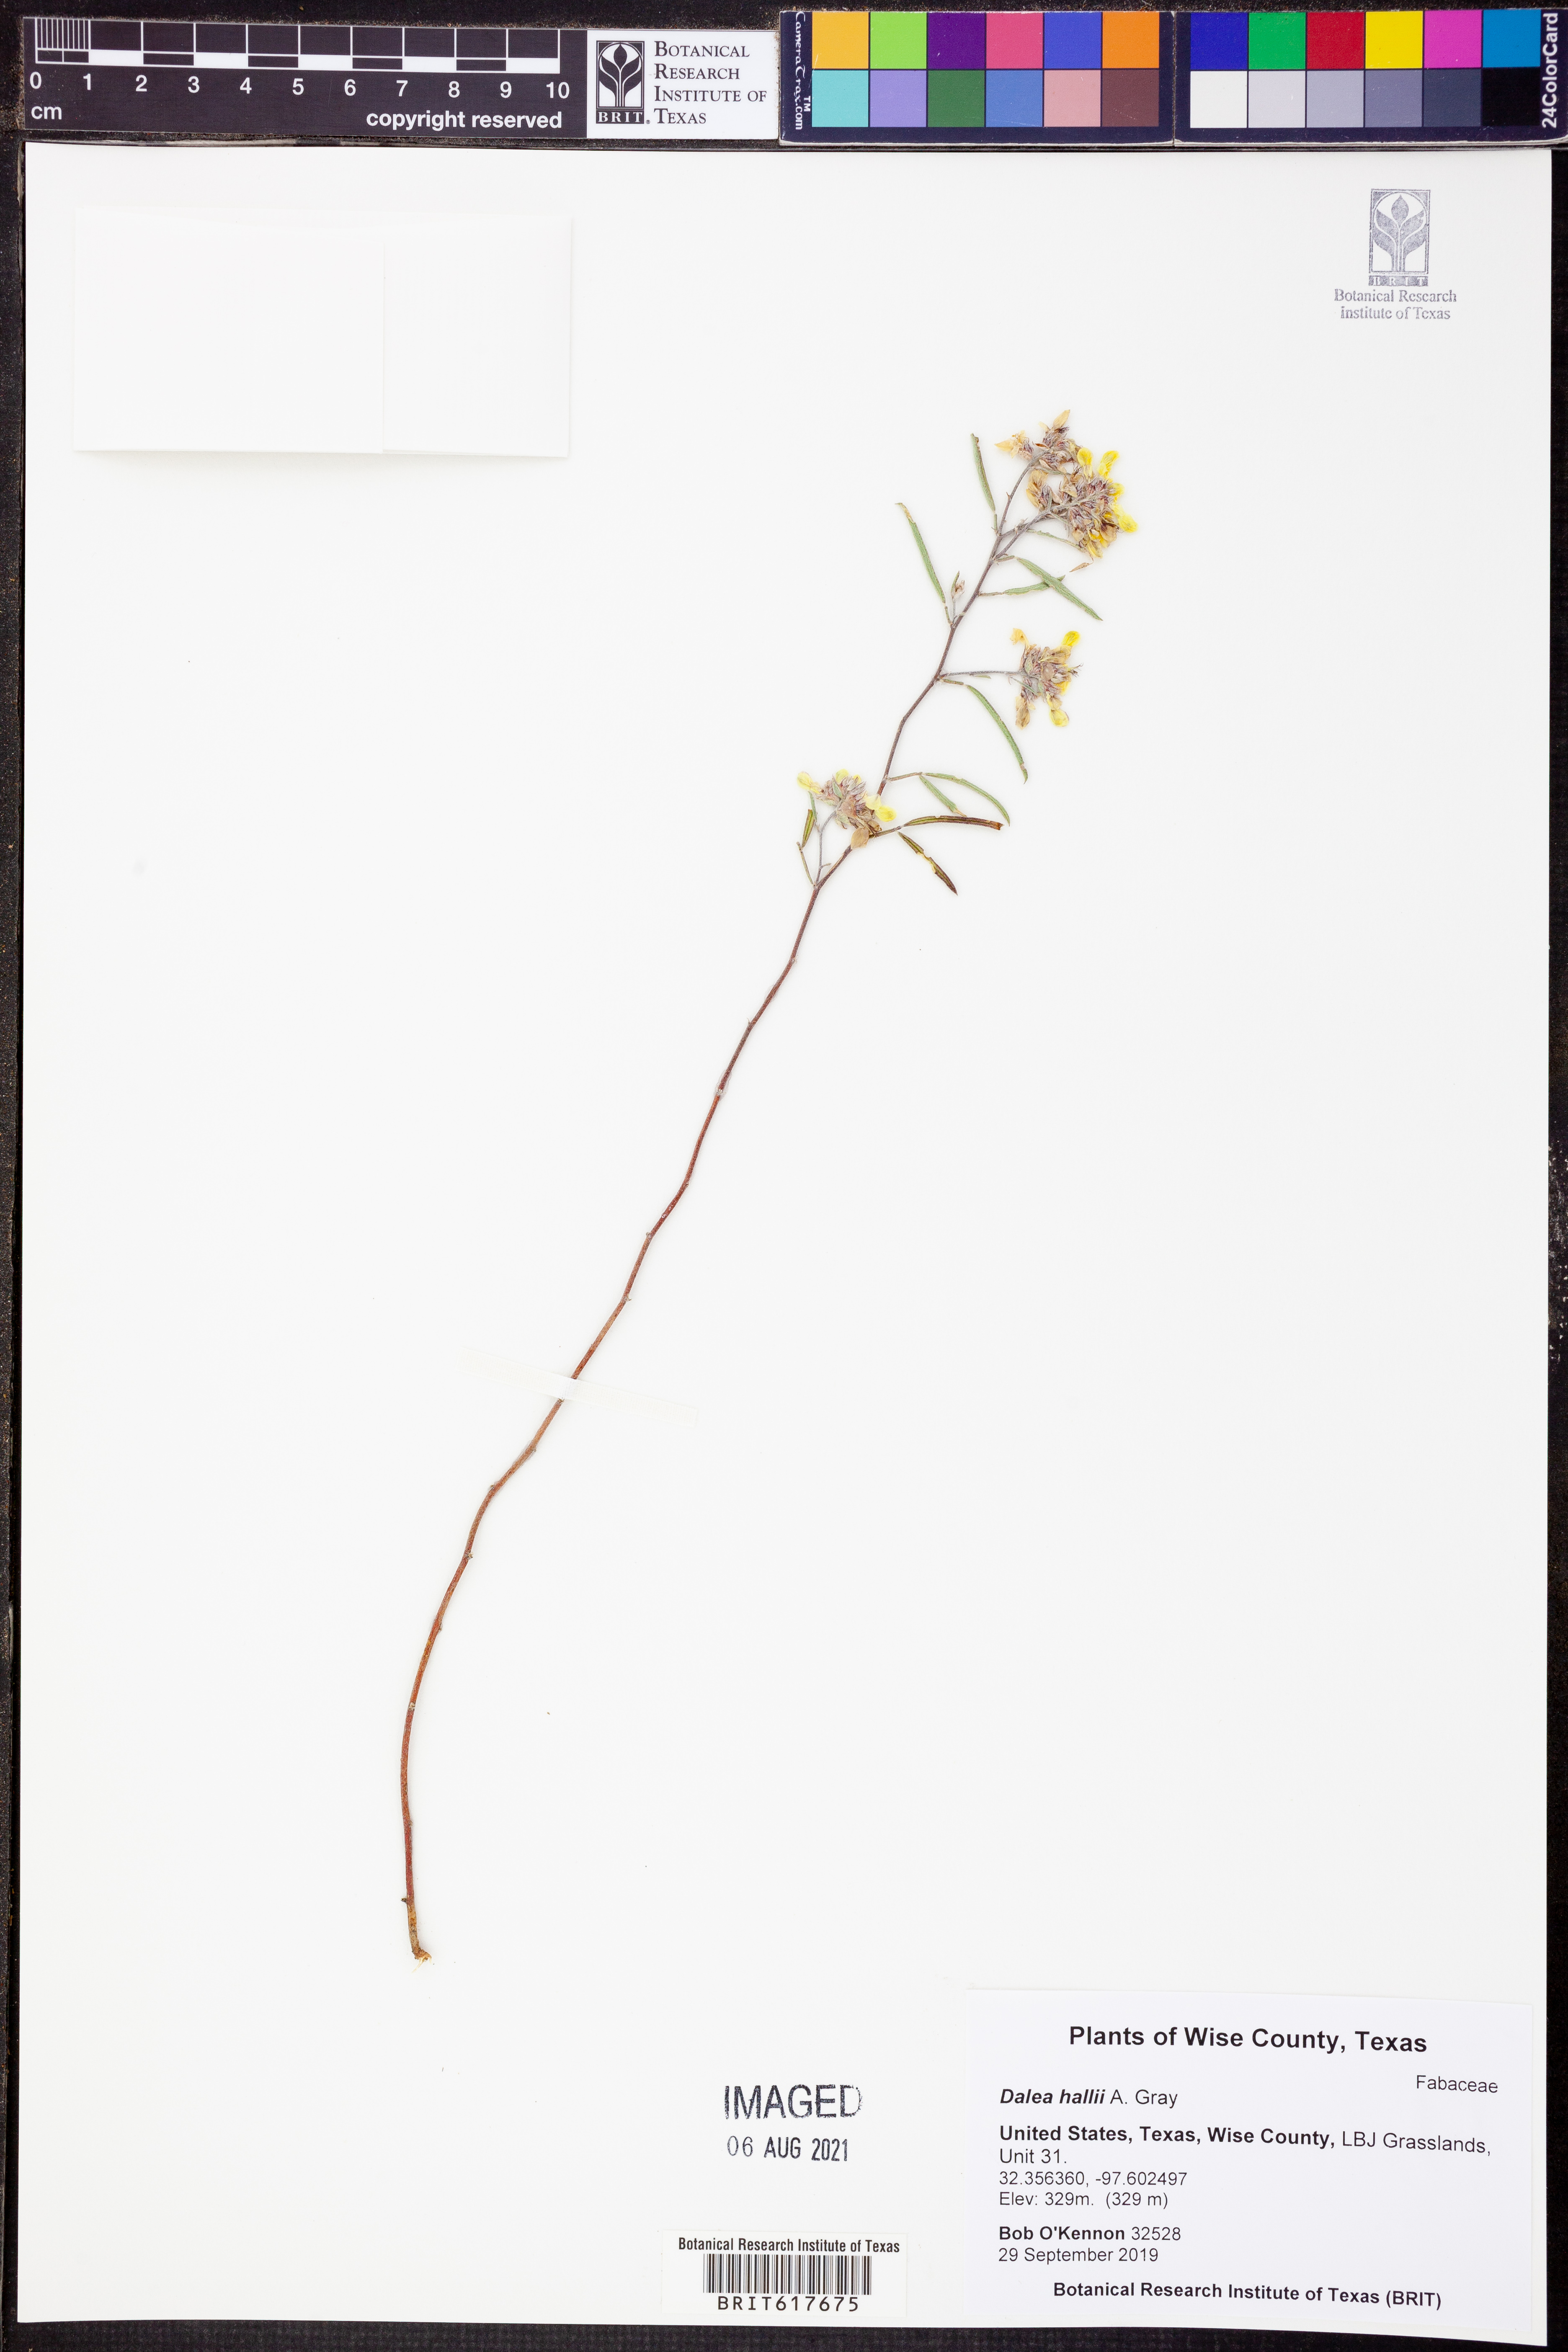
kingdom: Plantae
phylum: Tracheophyta
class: Magnoliopsida
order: Fabales
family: Fabaceae
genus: Dalea
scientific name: Dalea hallii
